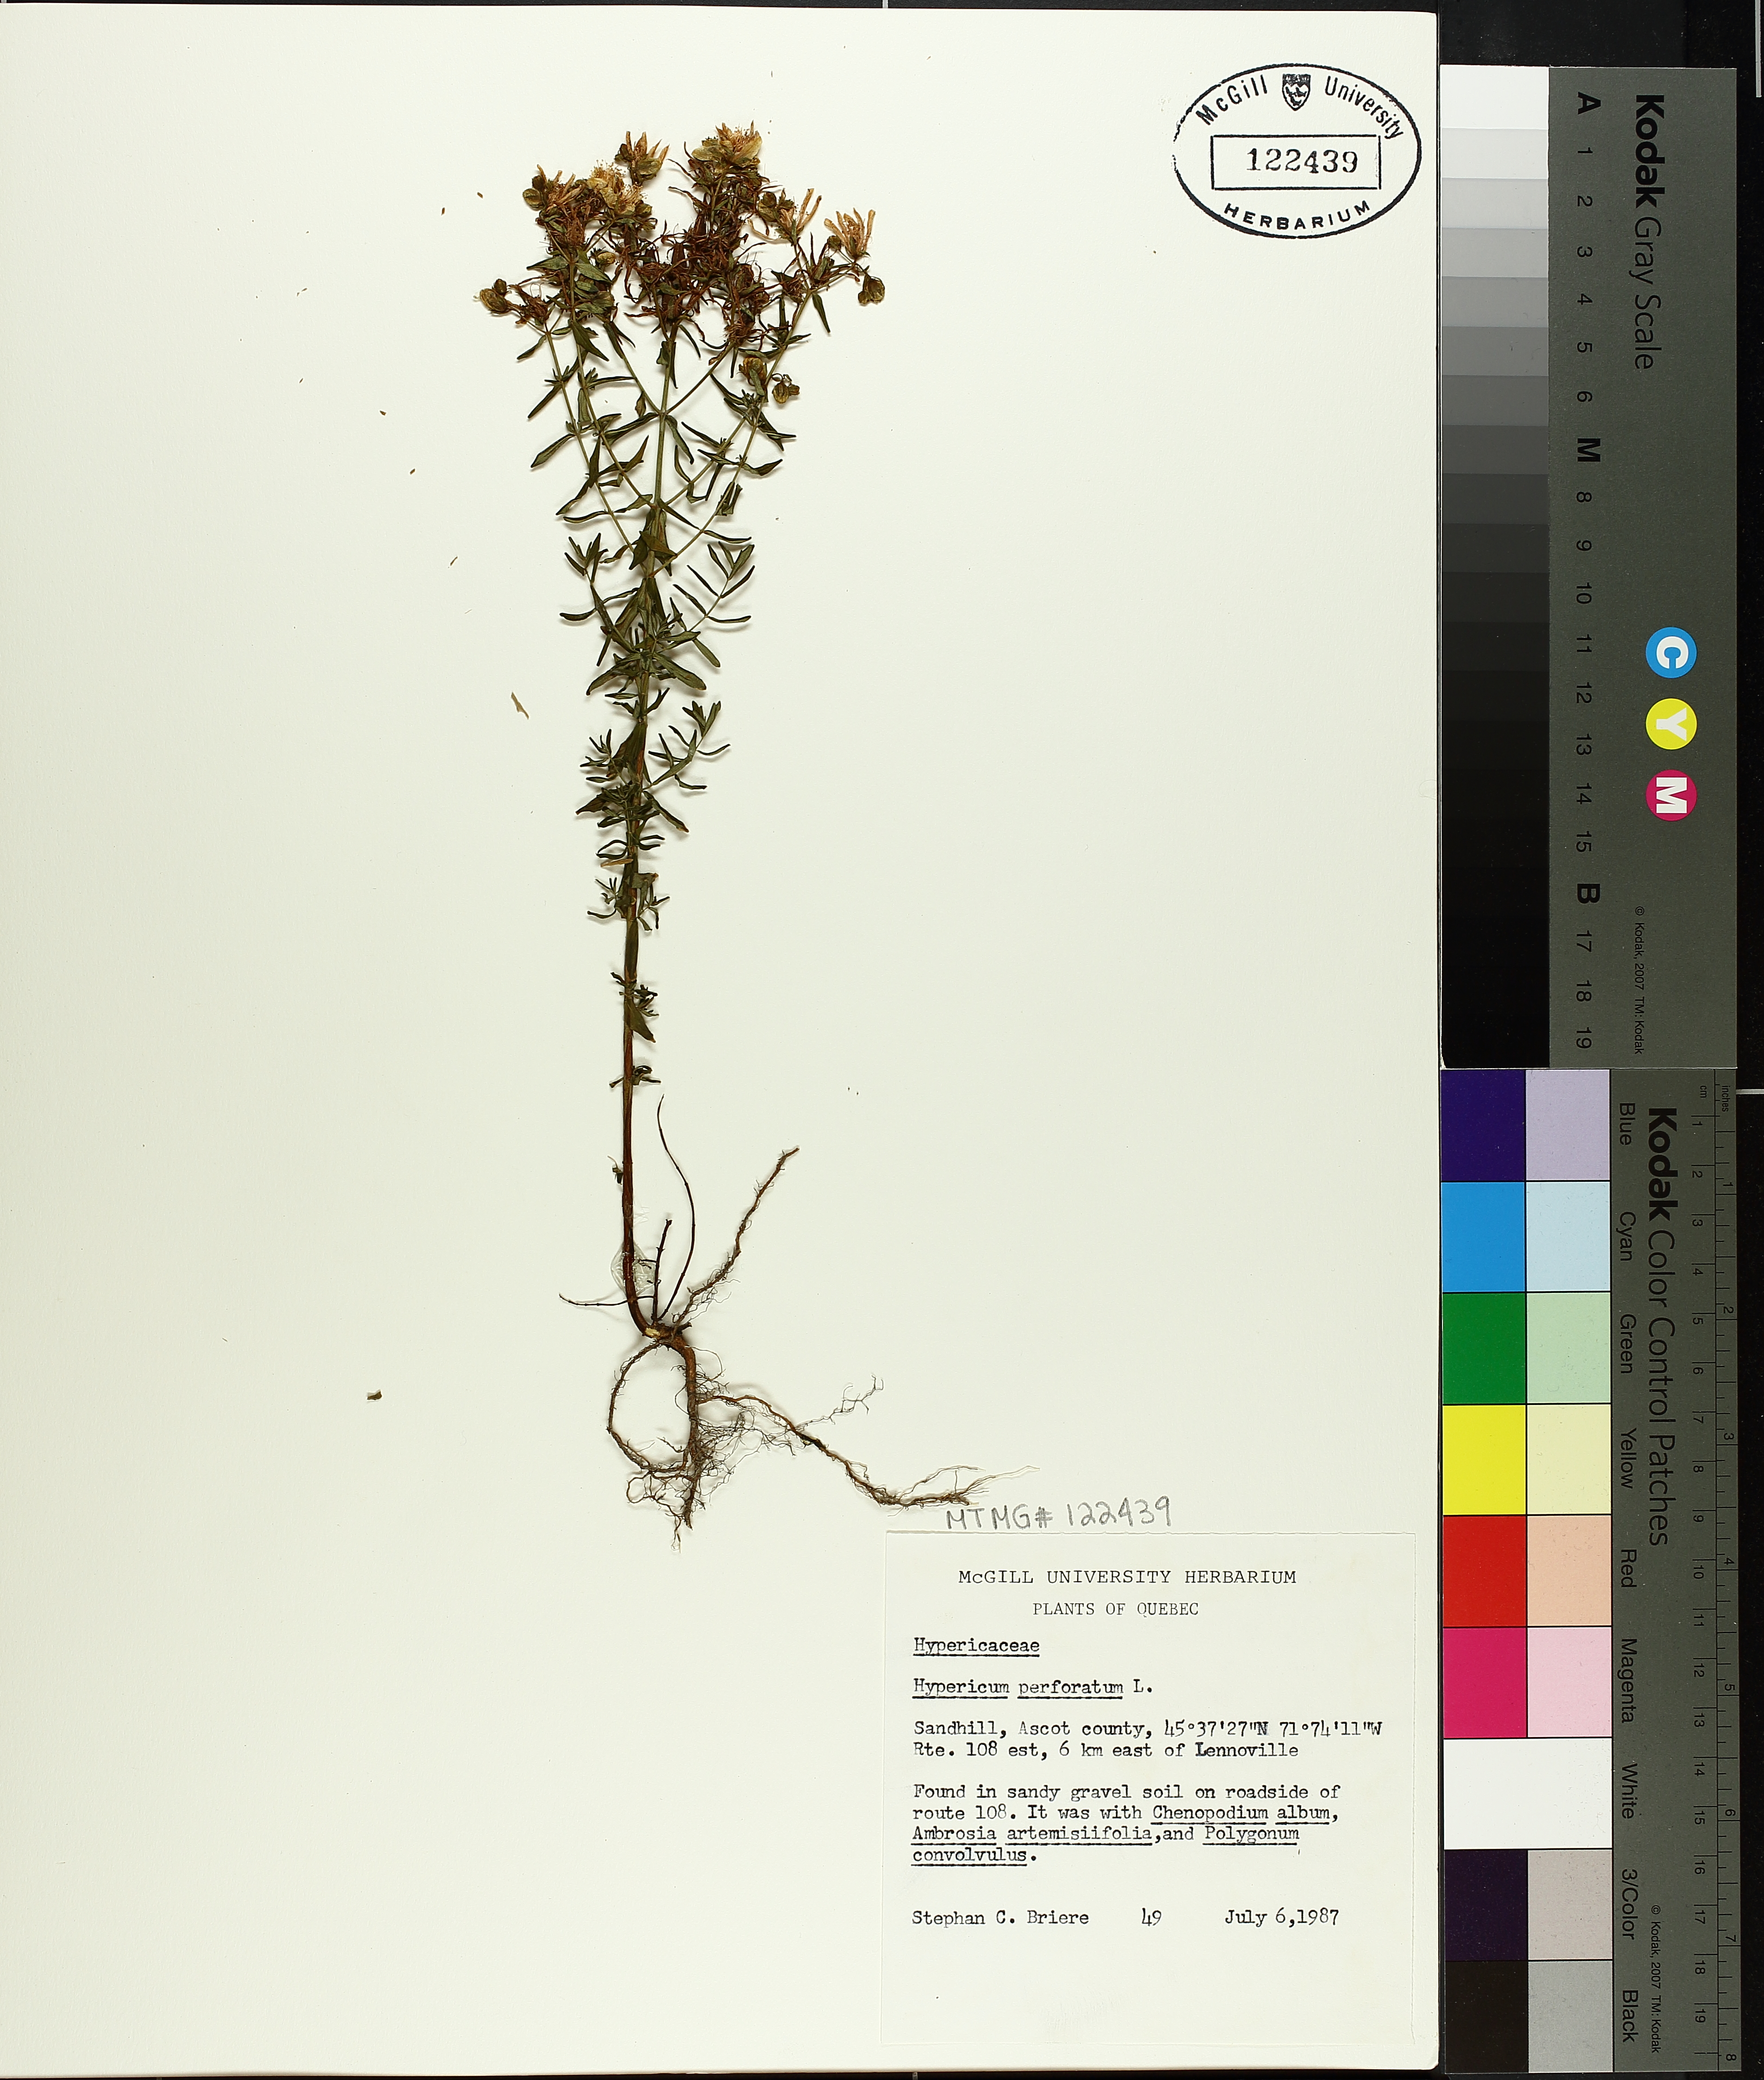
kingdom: Plantae
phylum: Tracheophyta
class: Magnoliopsida
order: Malpighiales
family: Hypericaceae
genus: Hypericum
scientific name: Hypericum perforatum
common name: Common st. johnswort
